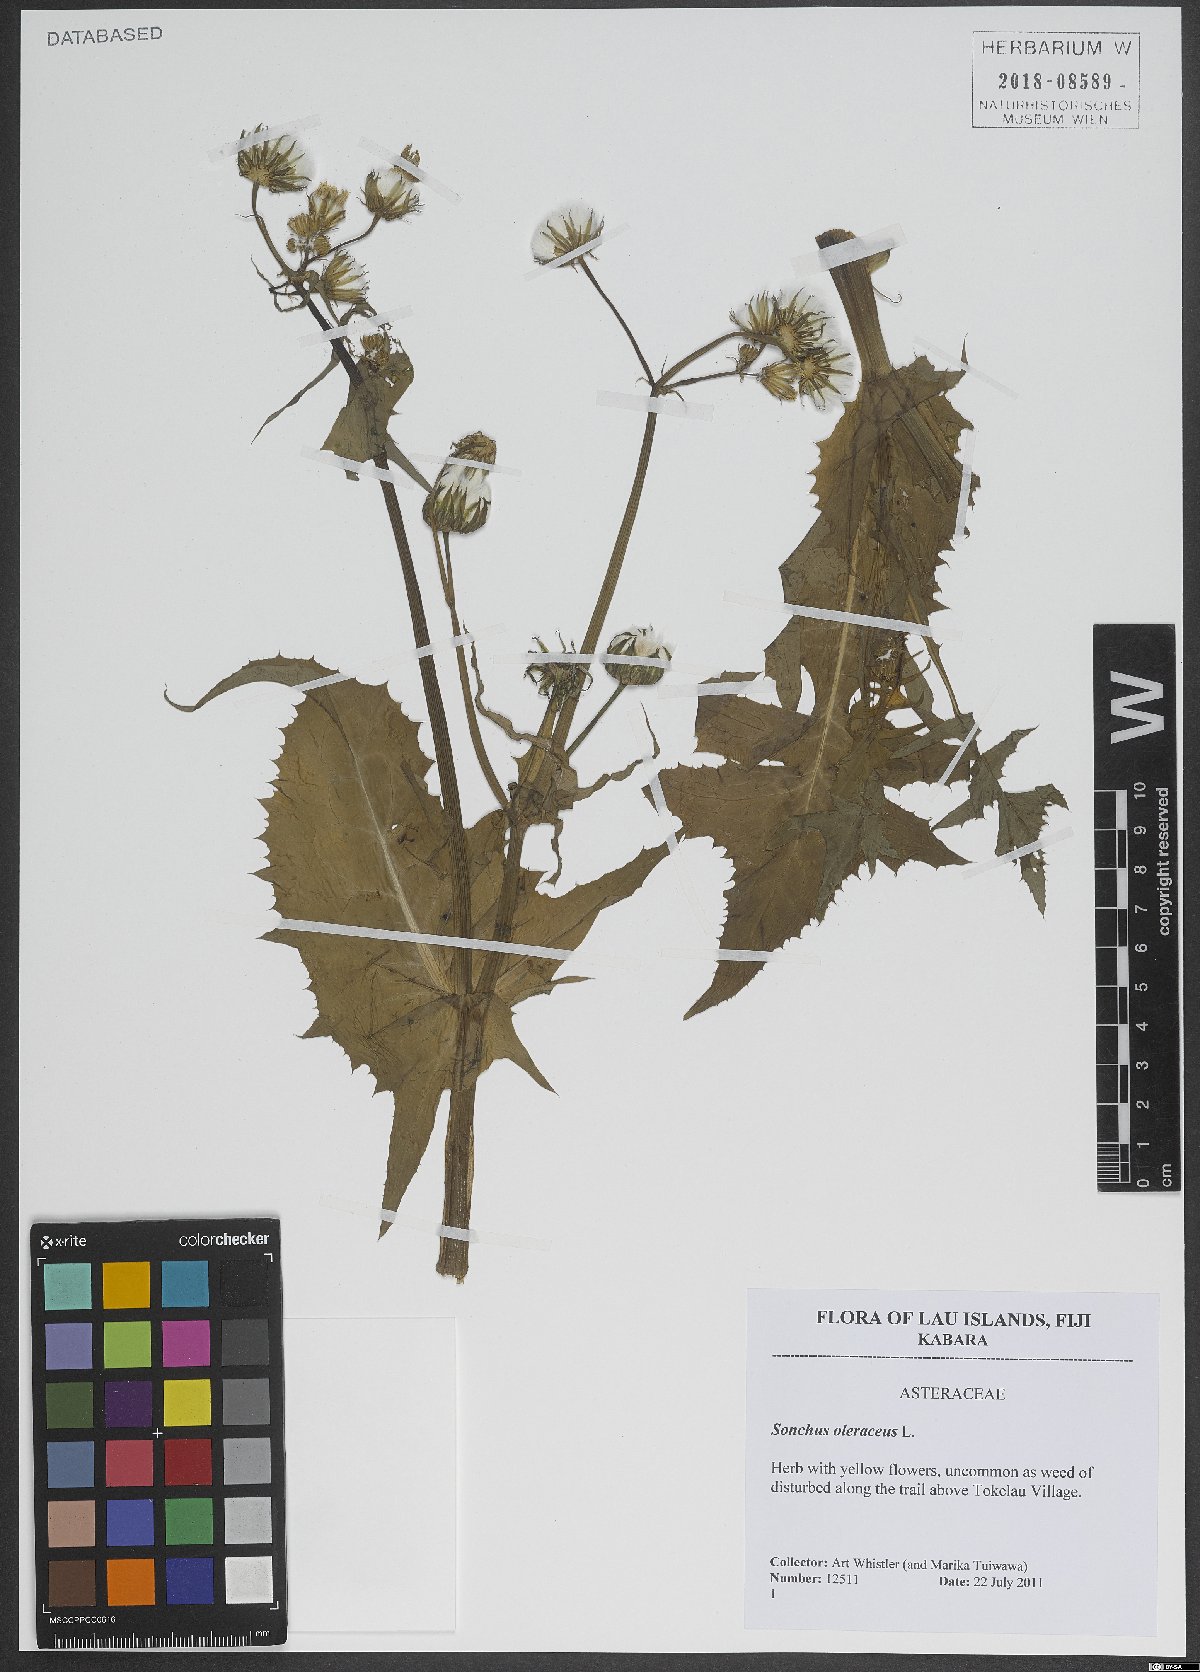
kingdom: Plantae
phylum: Tracheophyta
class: Magnoliopsida
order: Asterales
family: Asteraceae
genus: Sonchus
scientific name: Sonchus oleraceus
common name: Common sowthistle
